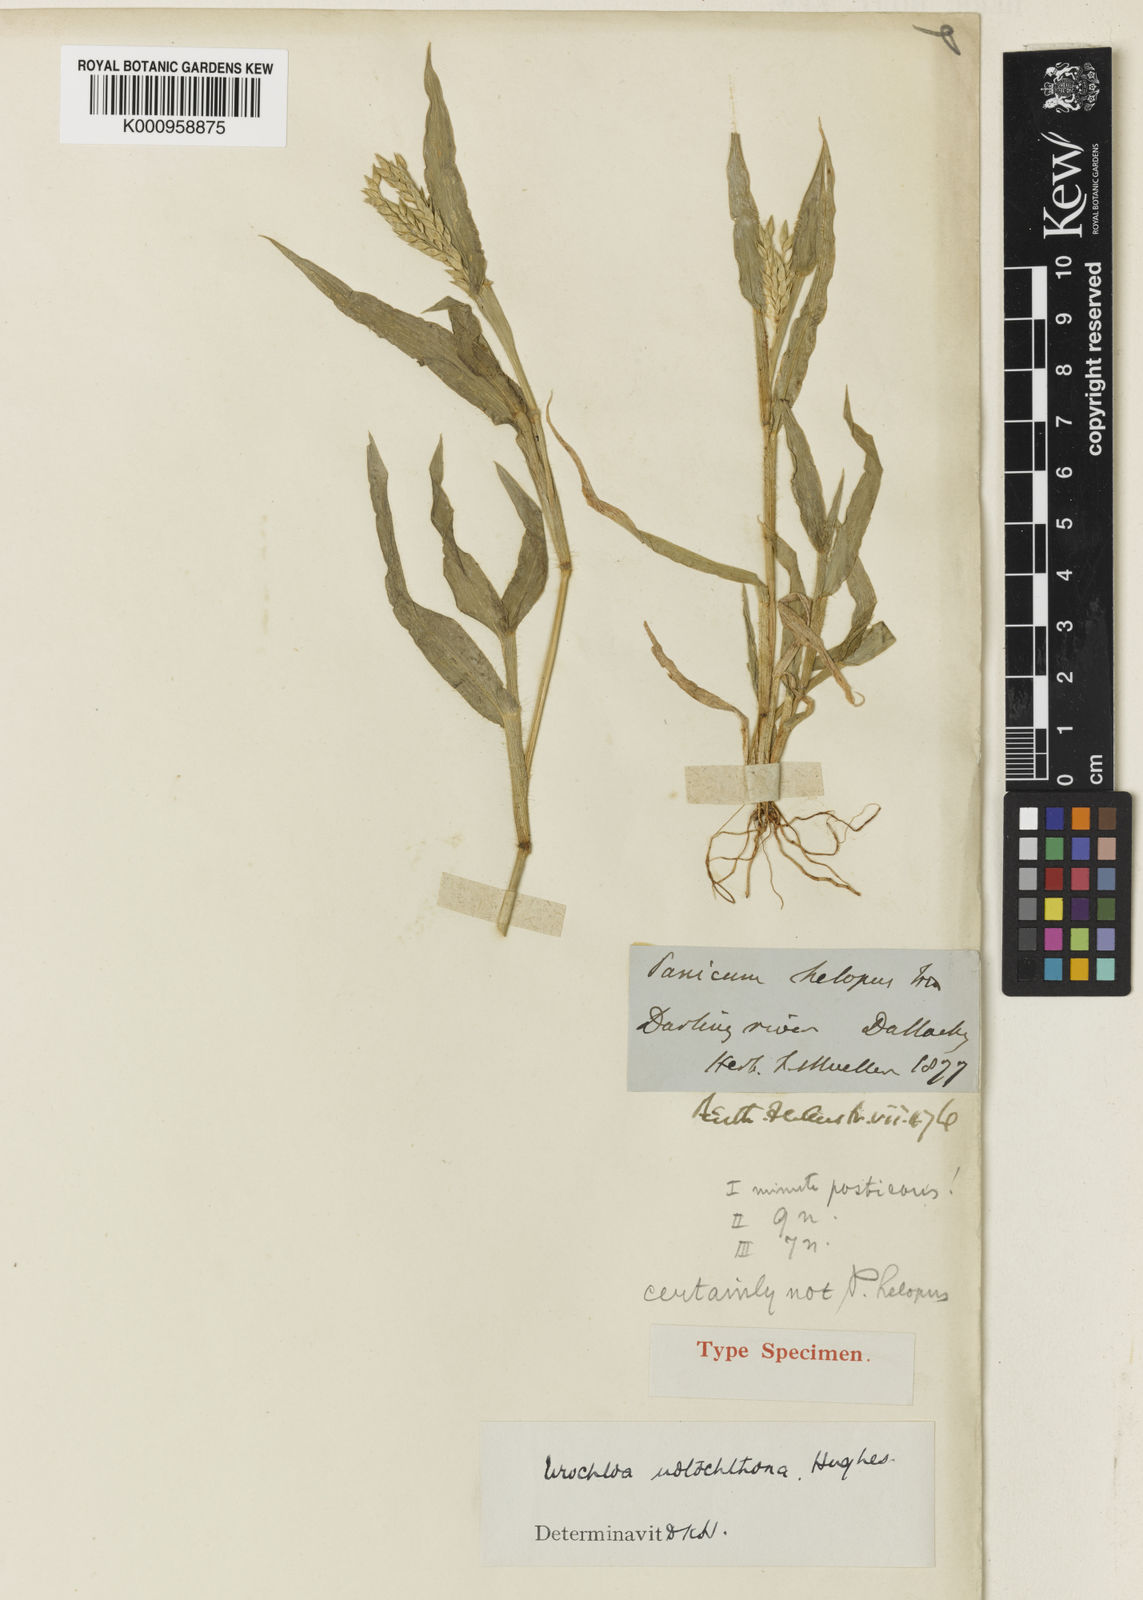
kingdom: Plantae
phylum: Tracheophyta
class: Liliopsida
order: Poales
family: Poaceae
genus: Urochloa
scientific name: Urochloa notochthona
